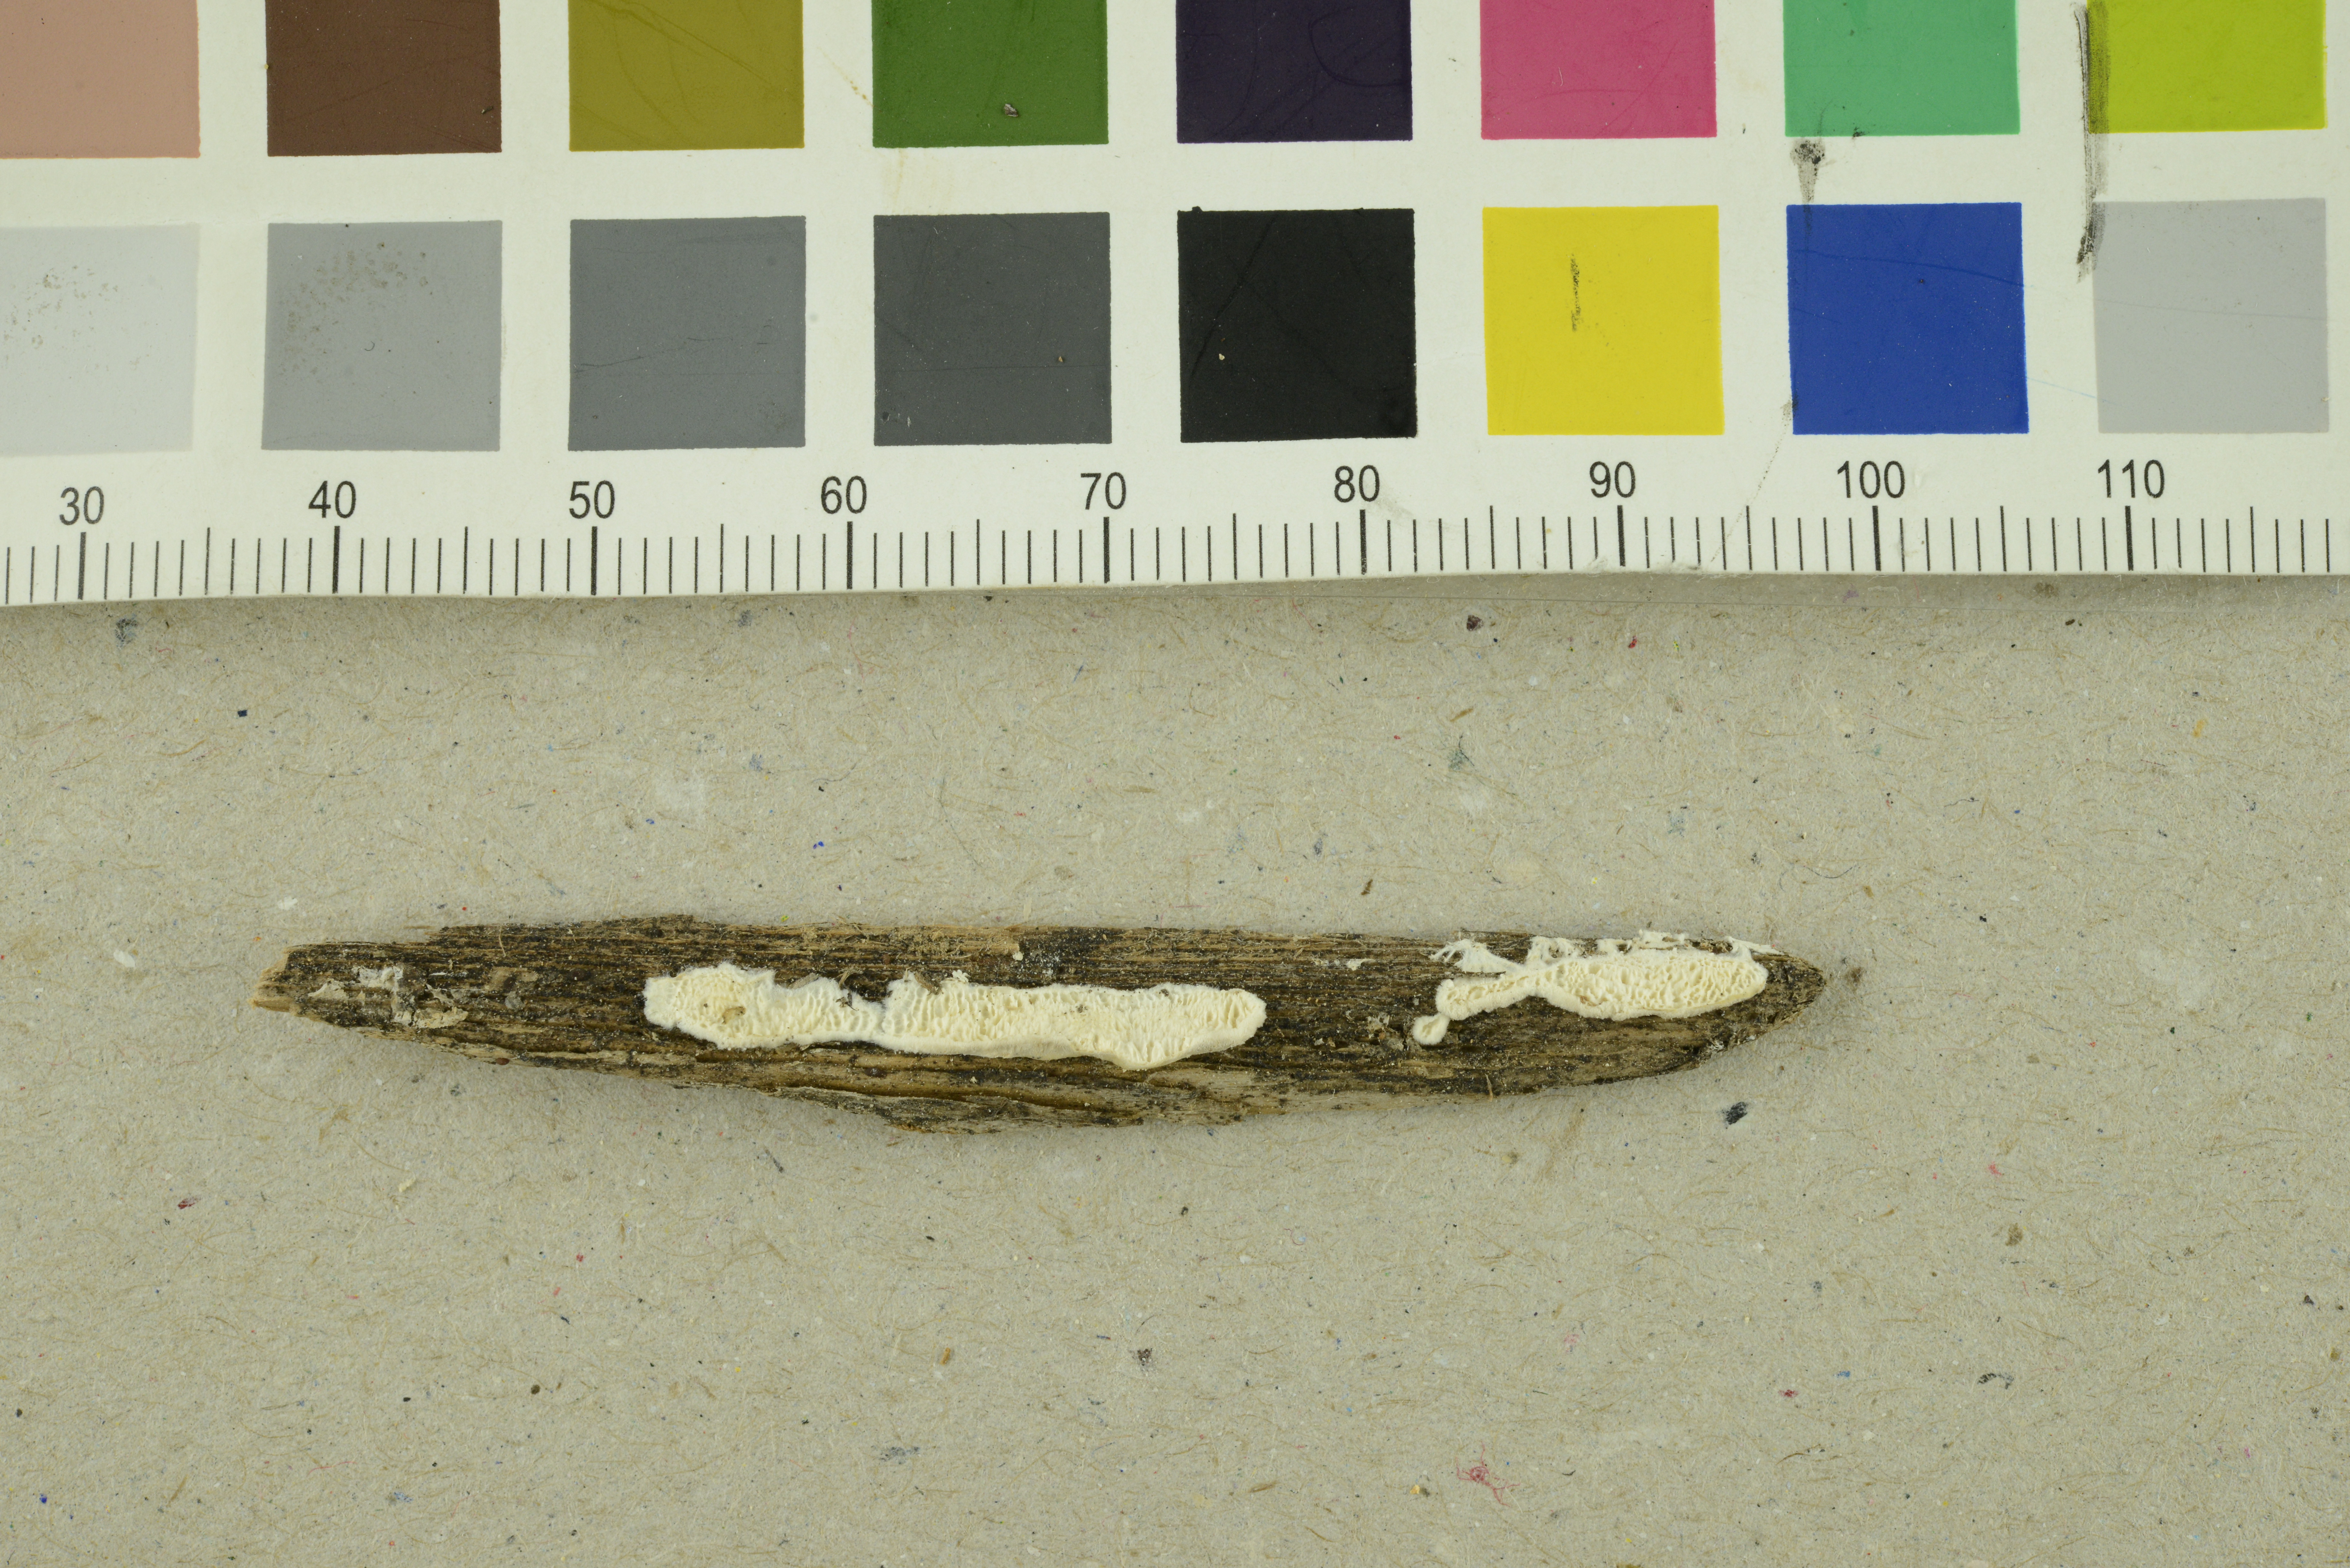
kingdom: Fungi
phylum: Basidiomycota
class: Agaricomycetes
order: Polyporales
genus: Cystidiopostia
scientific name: Cystidiopostia hibernica
